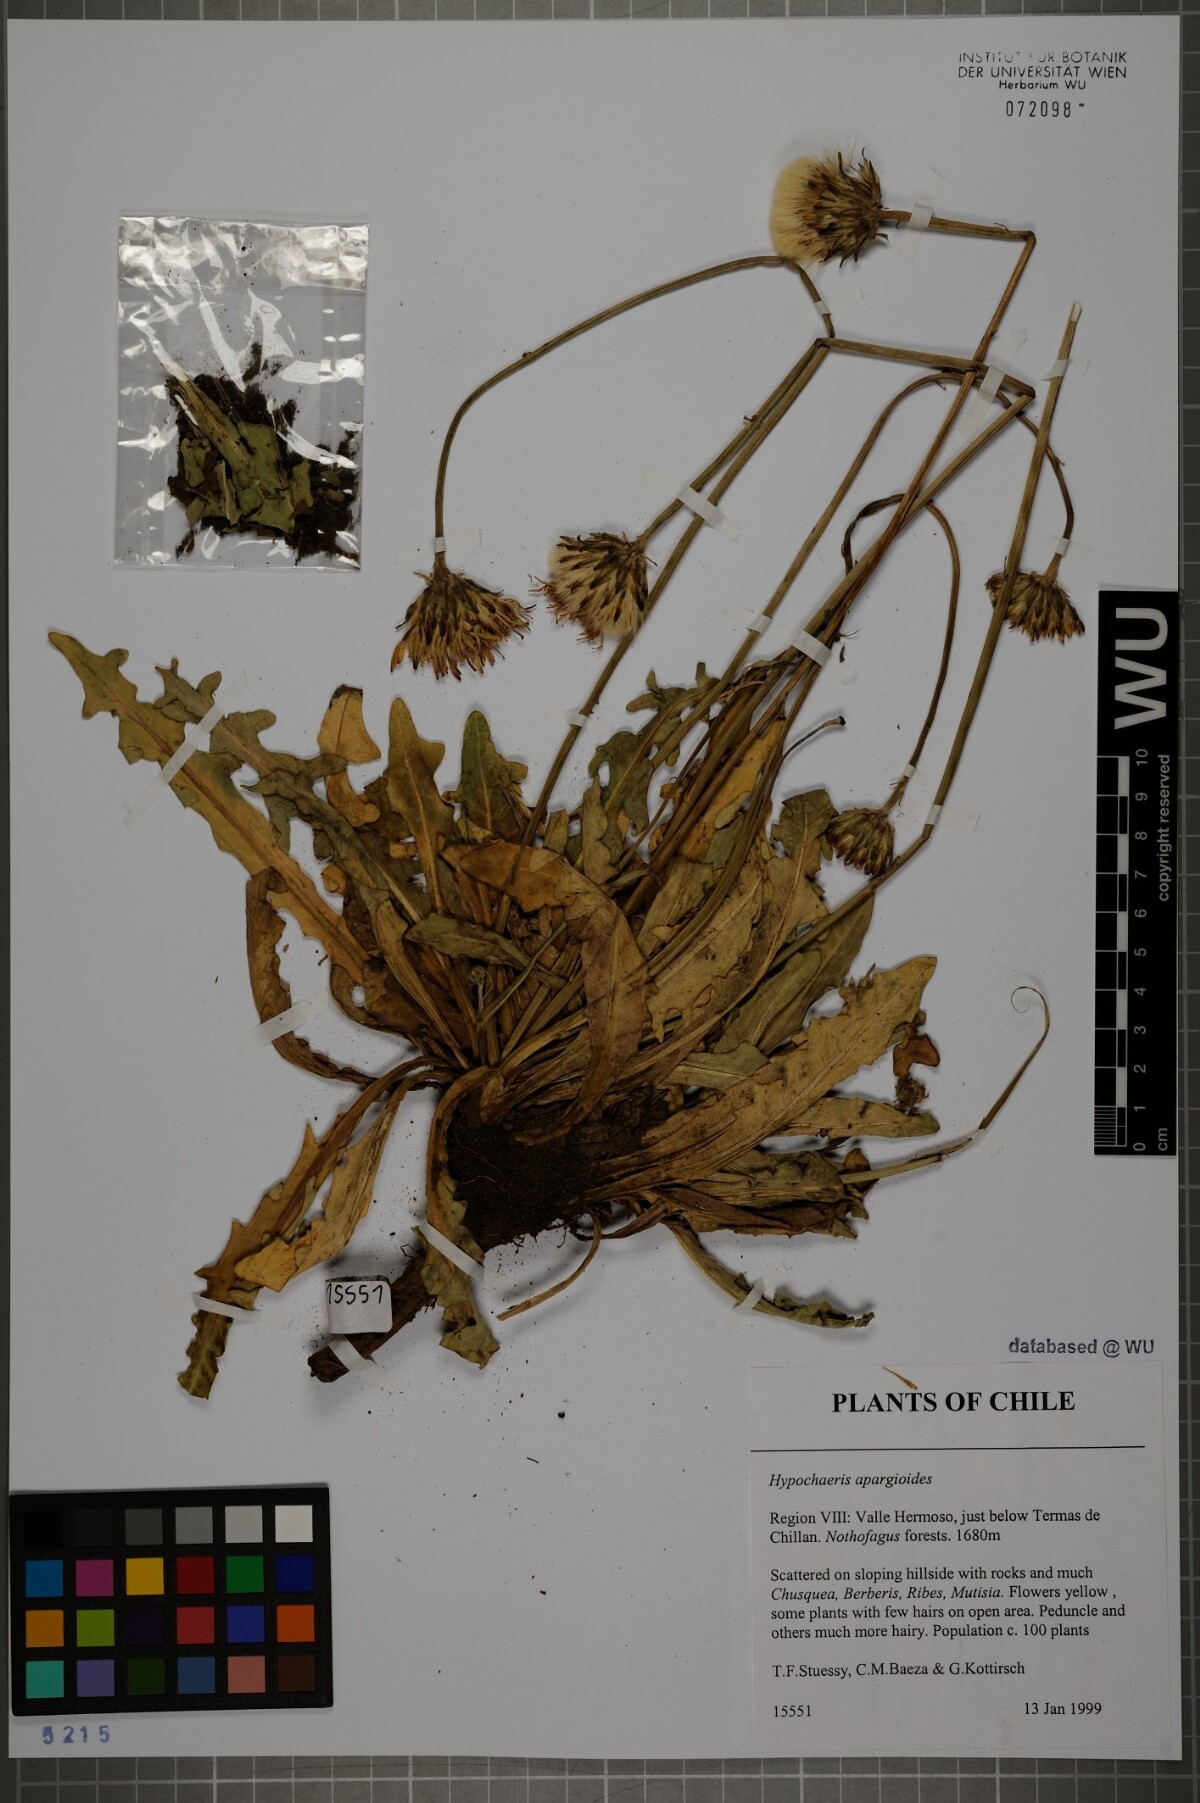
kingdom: Plantae
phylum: Tracheophyta
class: Magnoliopsida
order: Asterales
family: Asteraceae
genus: Hypochaeris
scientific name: Hypochaeris apargioides
